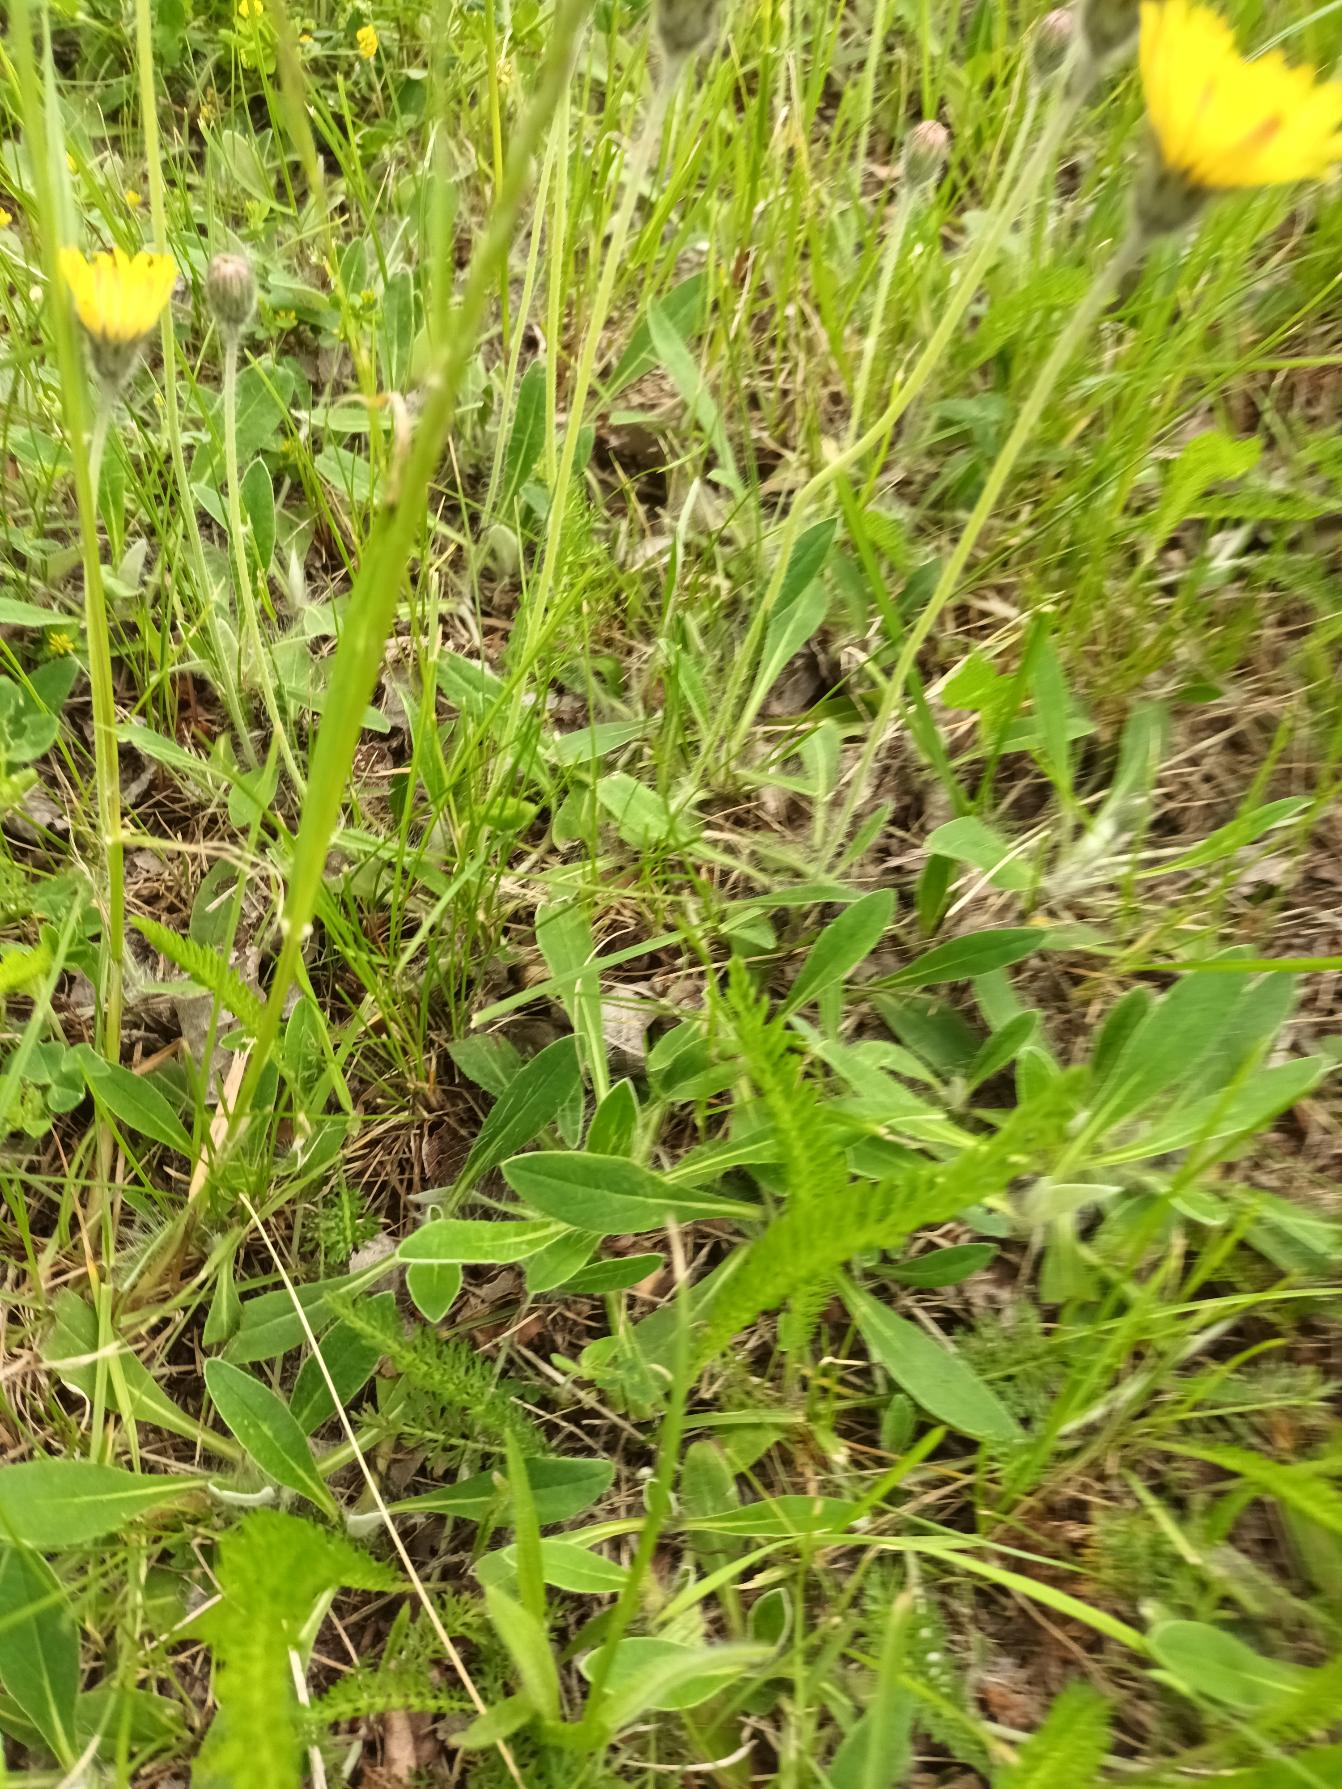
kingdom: Plantae
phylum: Tracheophyta
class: Magnoliopsida
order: Asterales
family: Asteraceae
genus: Pilosella
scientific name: Pilosella officinarum
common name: Håret høgeurt
